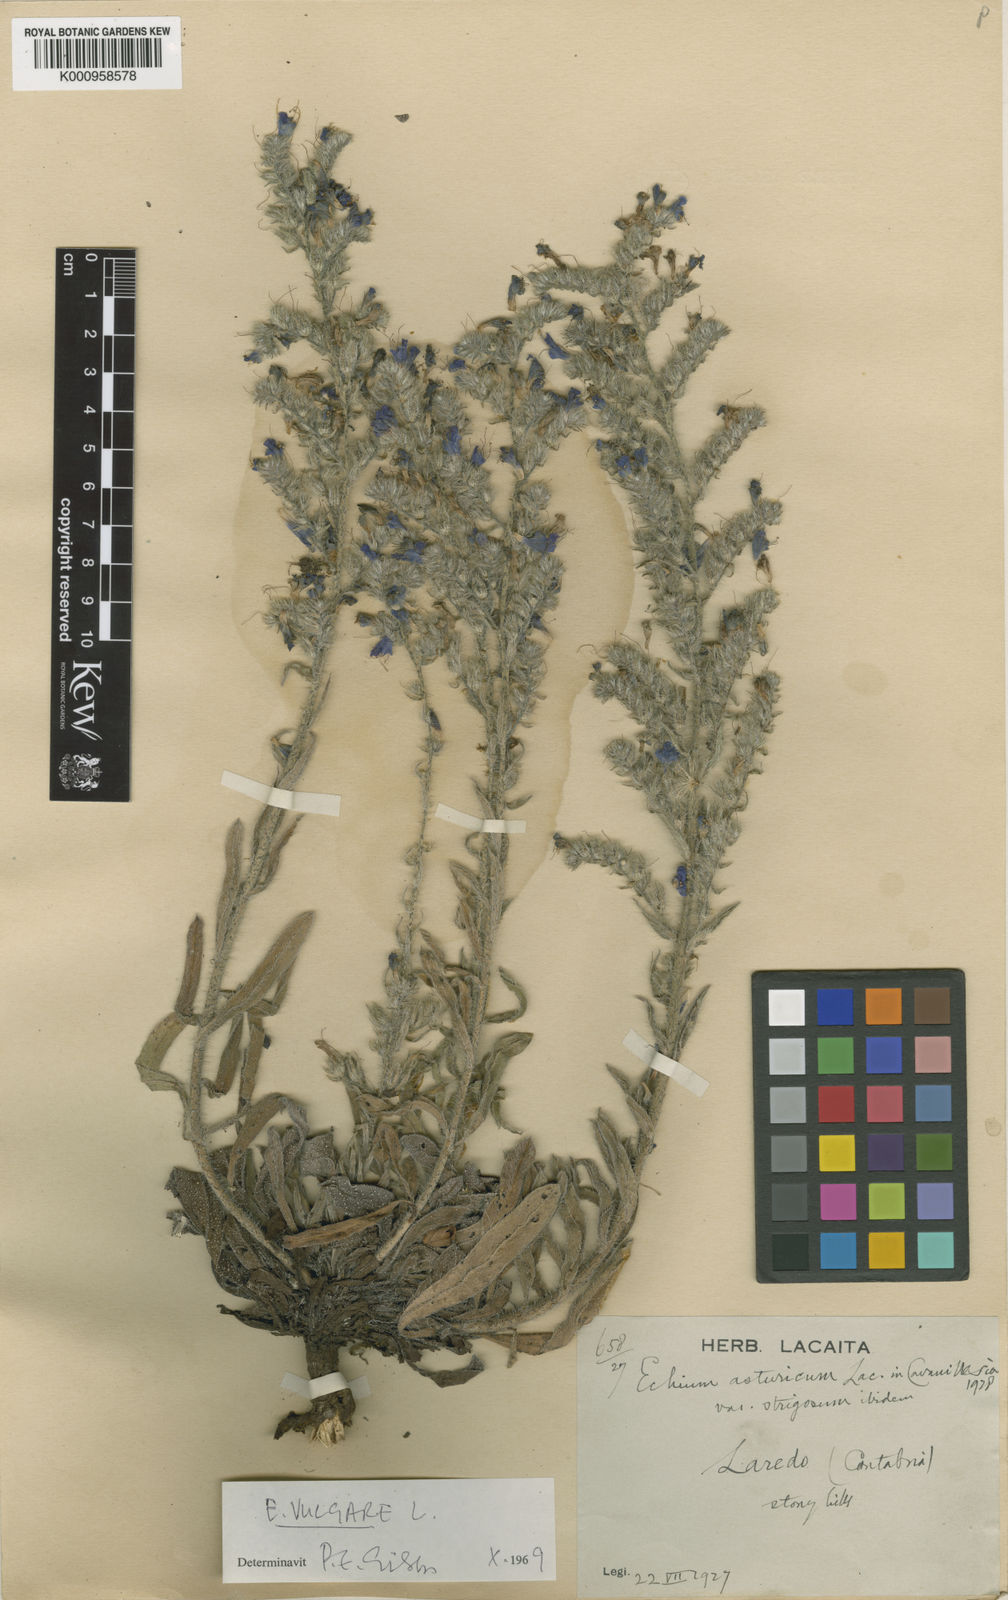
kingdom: Plantae
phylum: Tracheophyta
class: Magnoliopsida
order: Boraginales
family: Boraginaceae
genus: Echium
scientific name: Echium vulgare
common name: Common viper's bugloss
